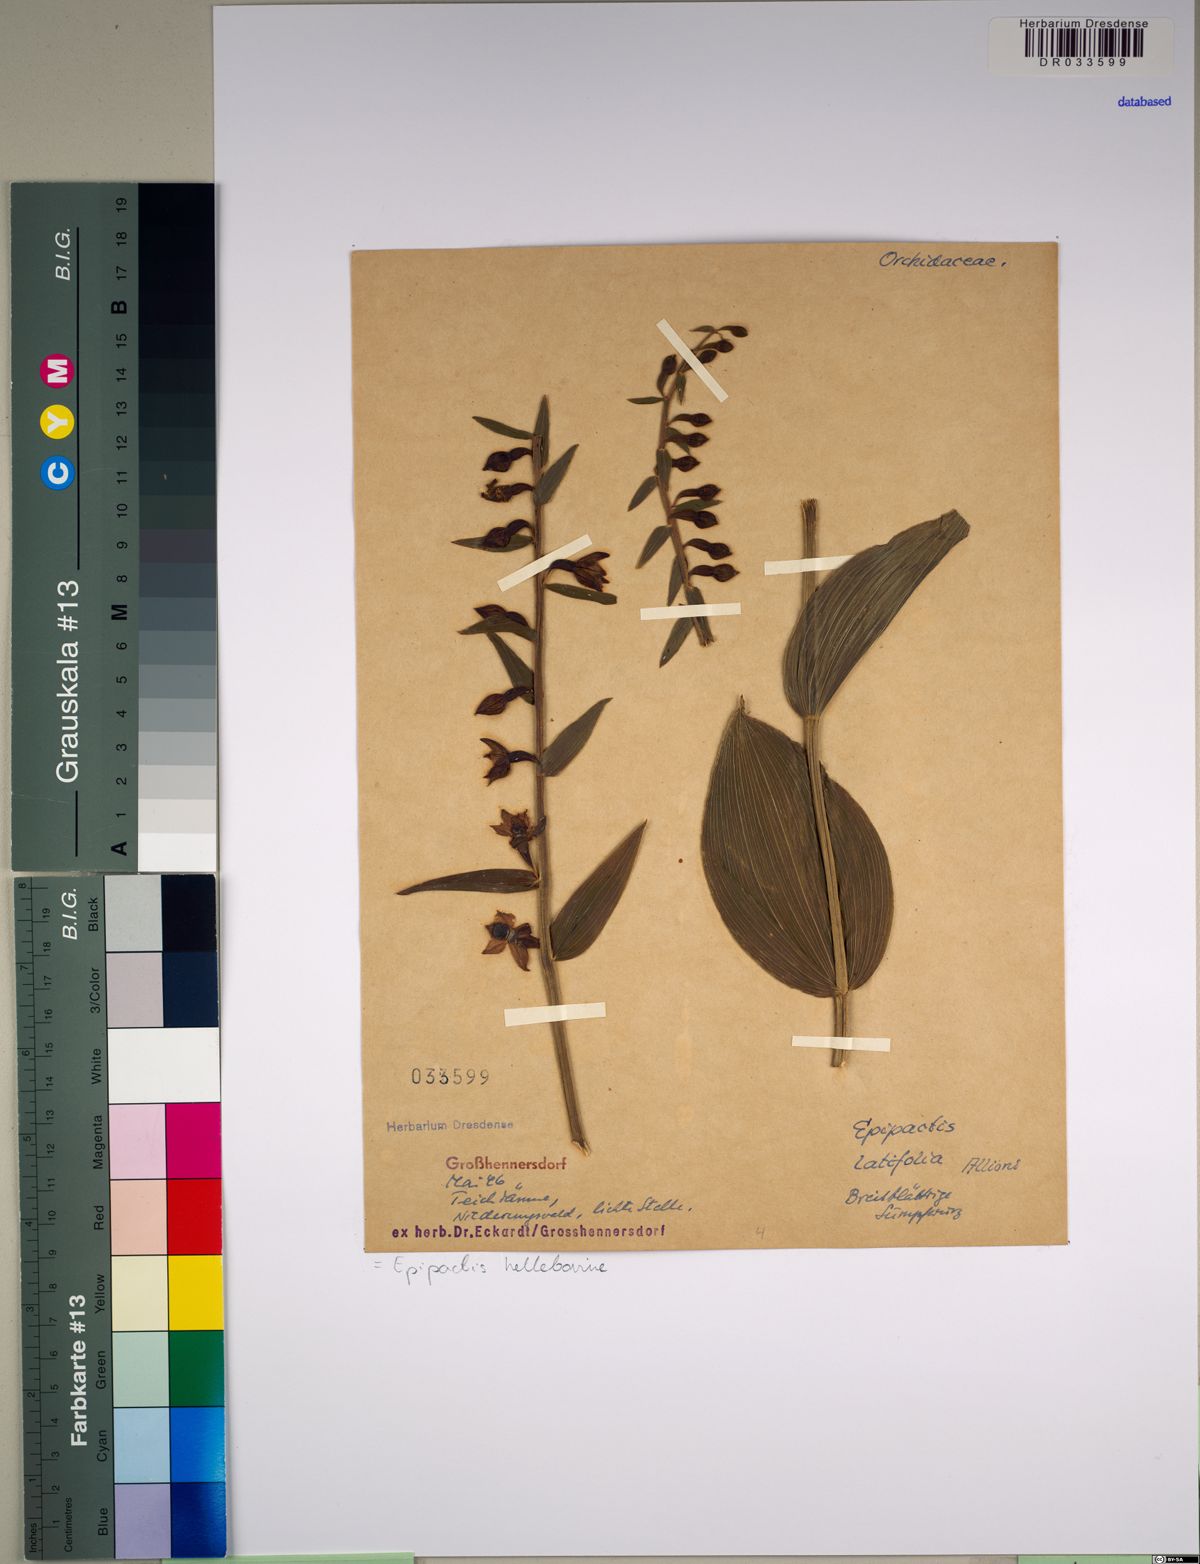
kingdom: Plantae
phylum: Tracheophyta
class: Liliopsida
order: Asparagales
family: Orchidaceae
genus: Epipactis
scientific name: Epipactis helleborine
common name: Broad-leaved helleborine
